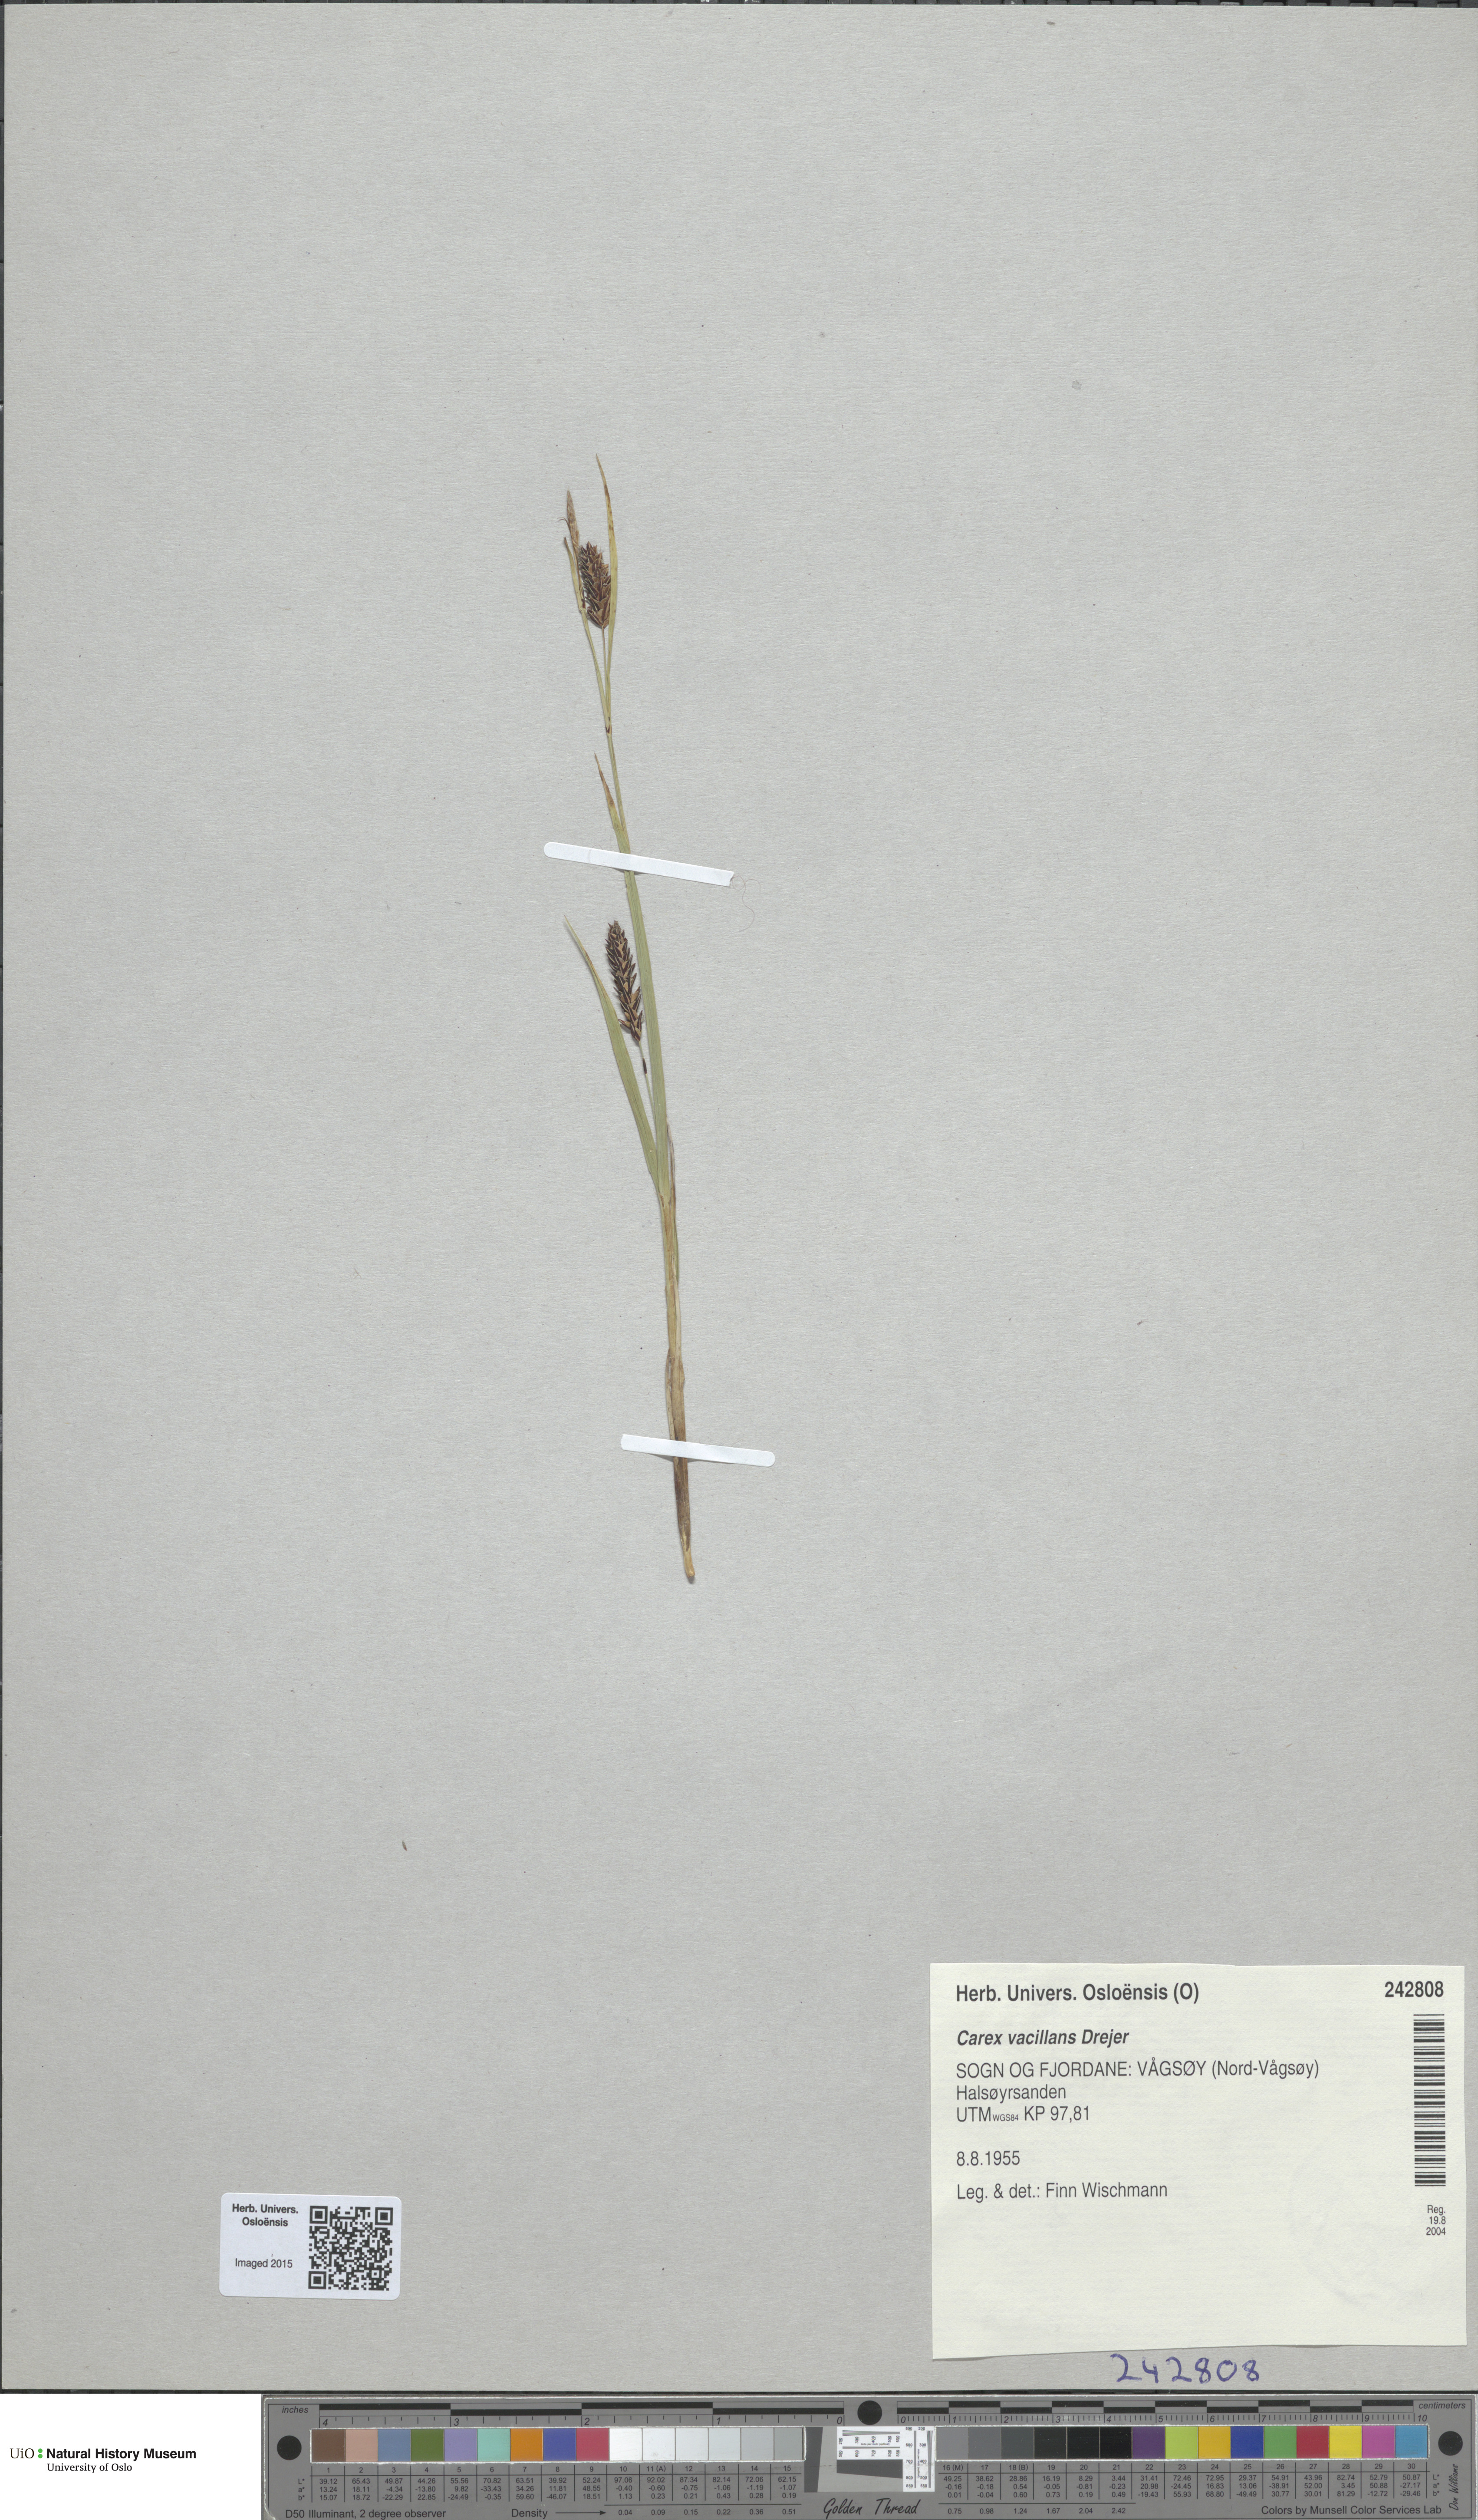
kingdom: Plantae
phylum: Tracheophyta
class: Liliopsida
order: Poales
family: Cyperaceae
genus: Carex
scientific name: Carex vacillans
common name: Sedge
